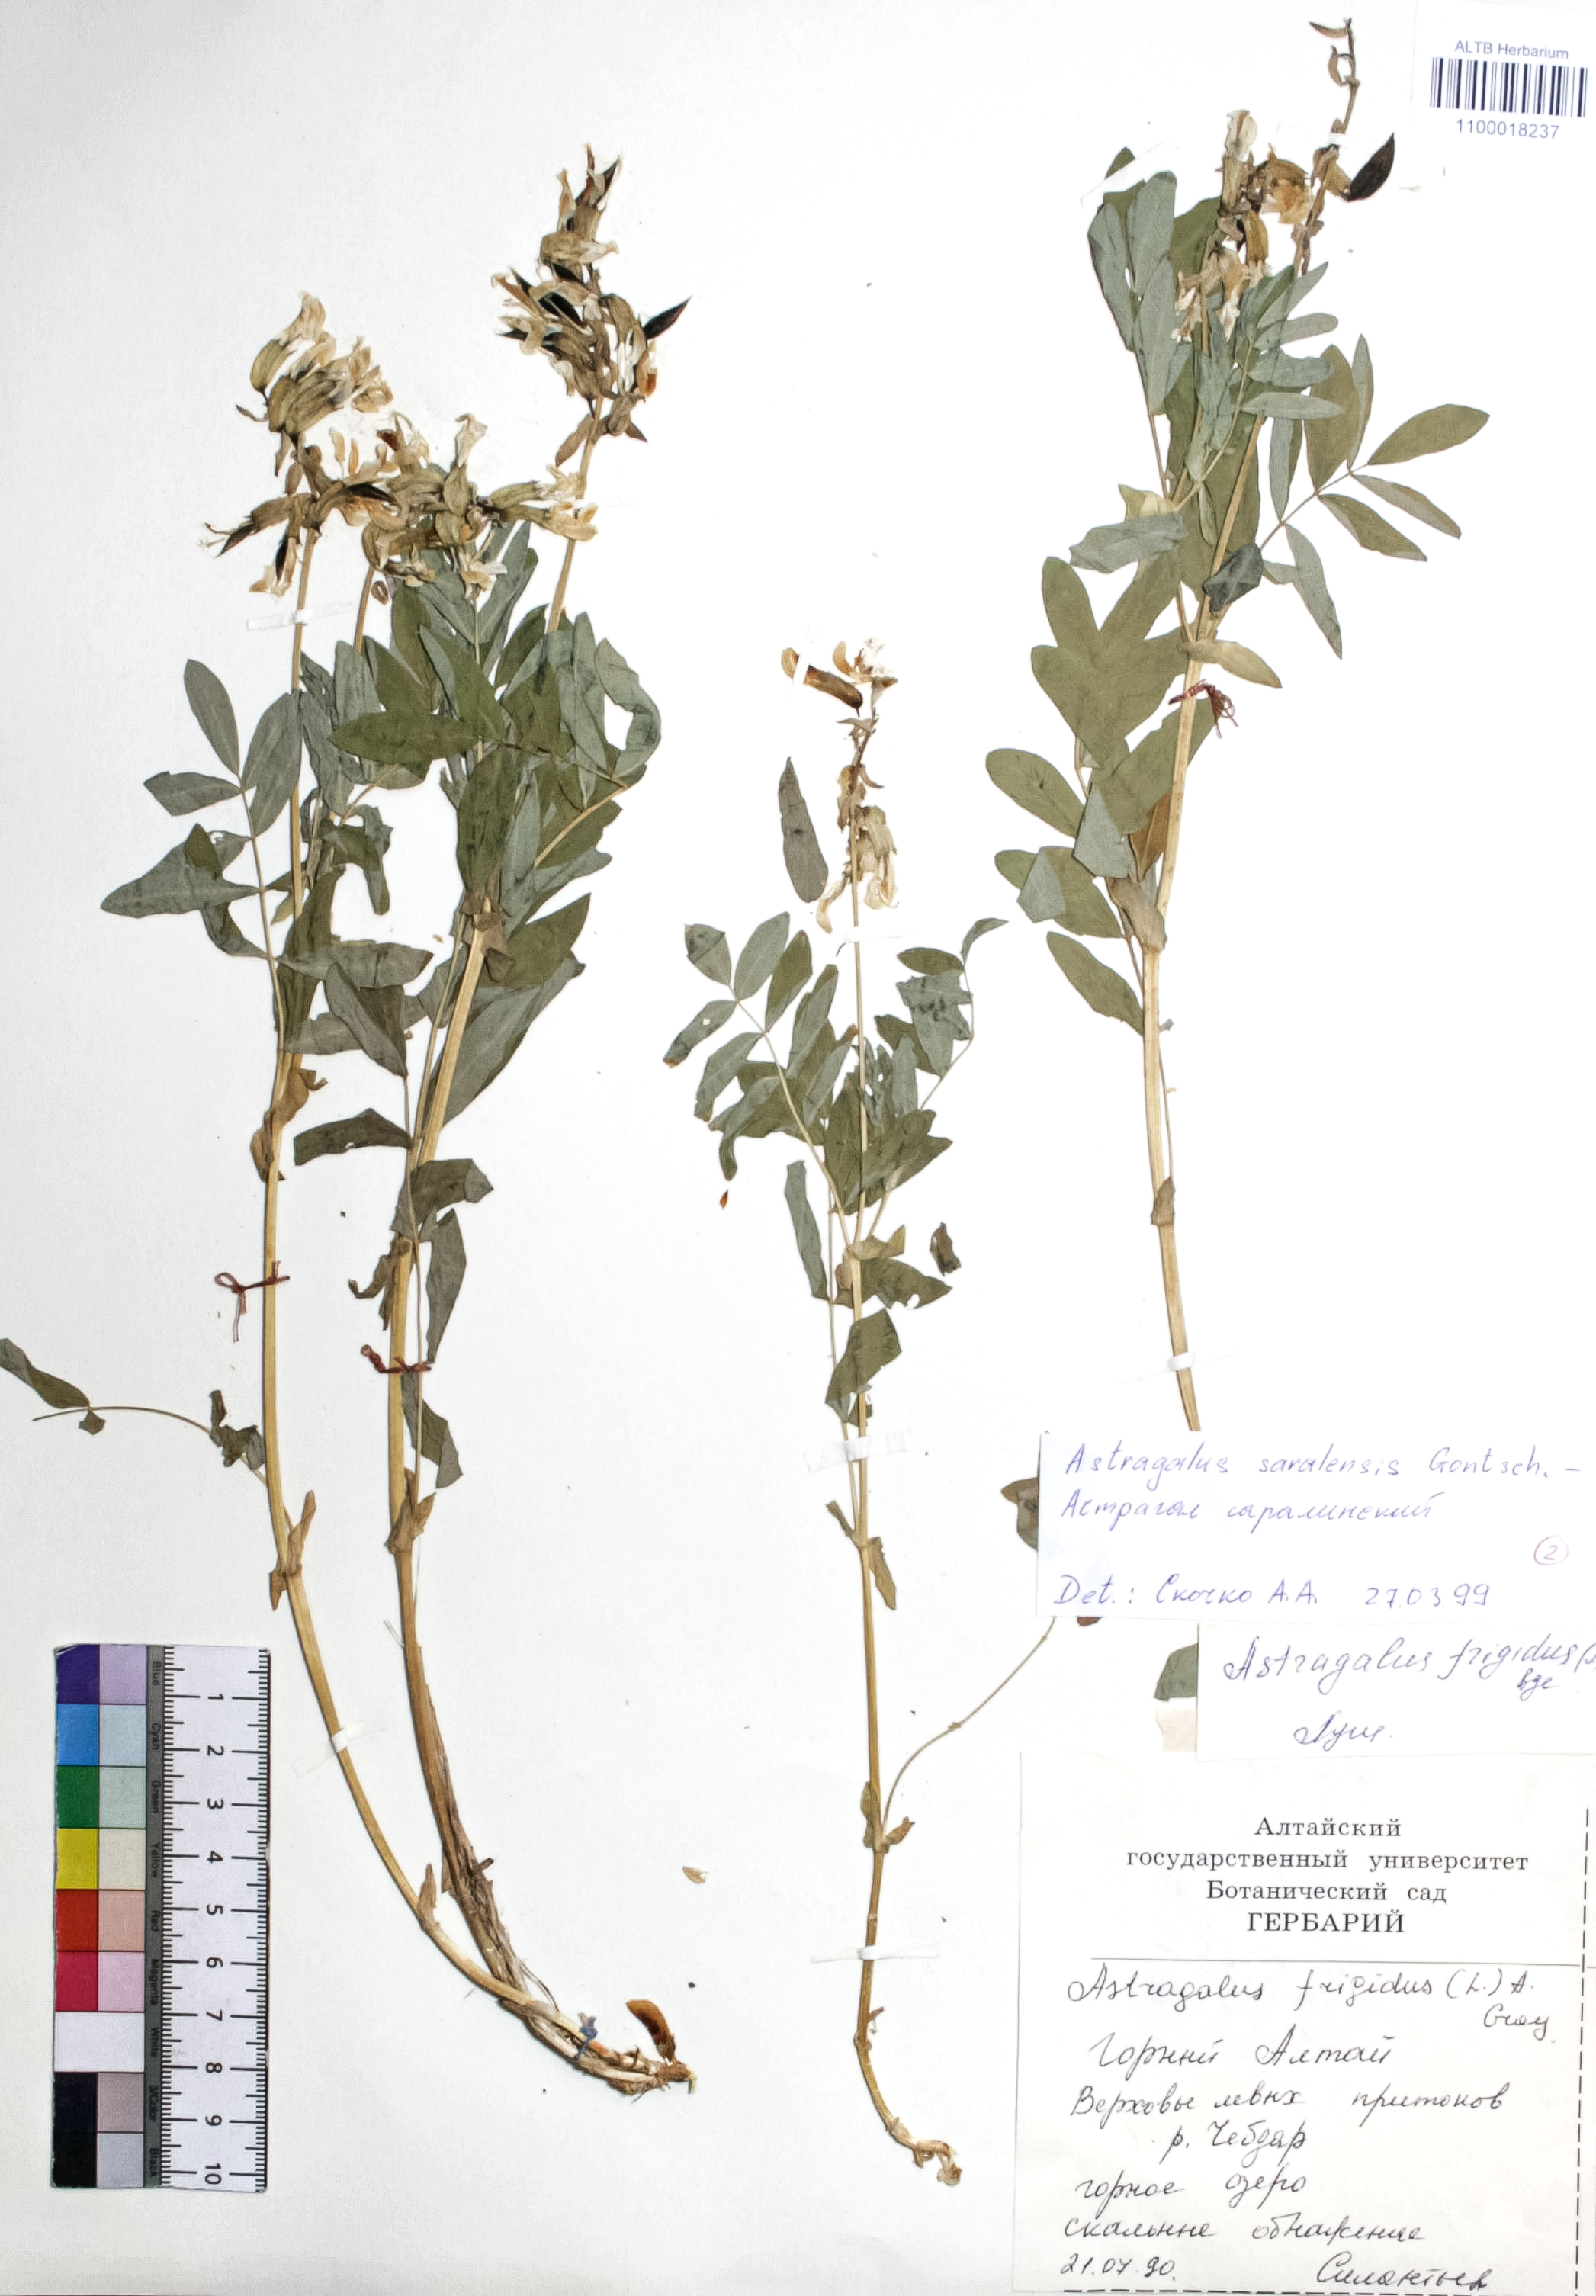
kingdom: Plantae
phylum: Tracheophyta
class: Magnoliopsida
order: Fabales
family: Fabaceae
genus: Astragalus
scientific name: Astragalus frigidus
